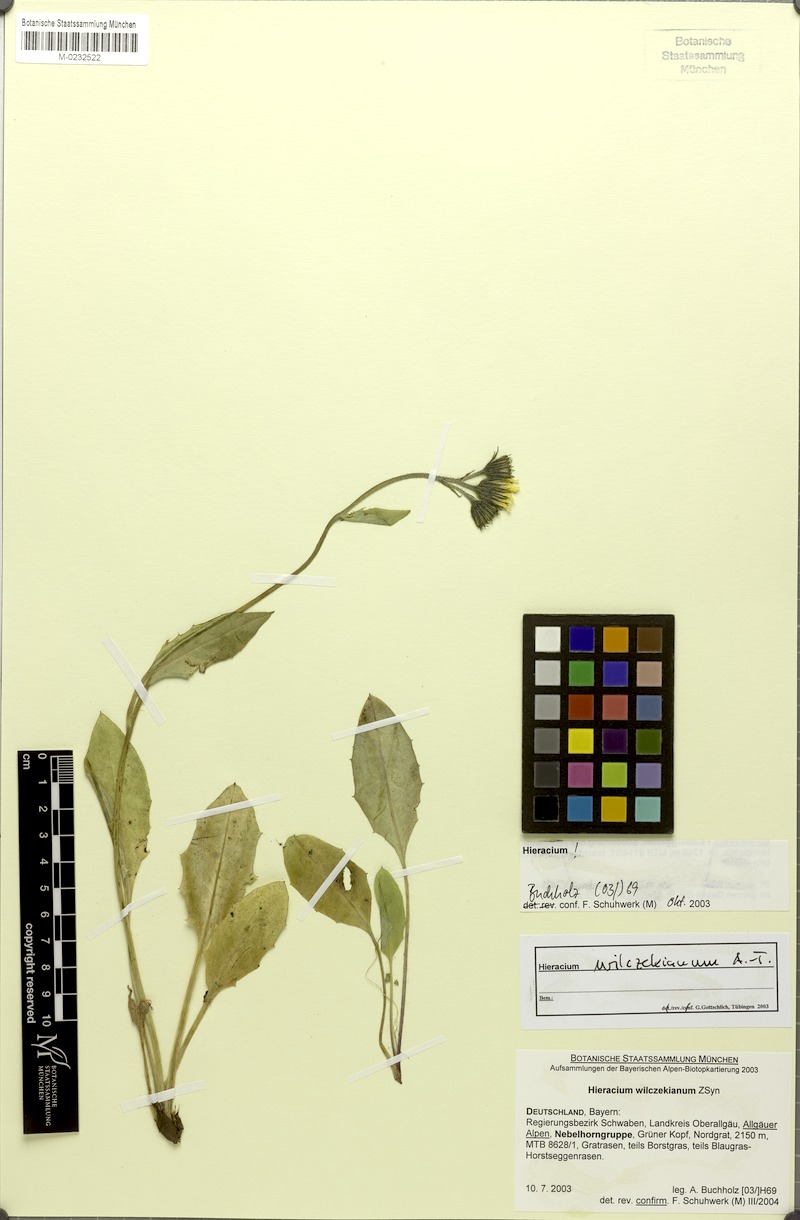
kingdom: Plantae
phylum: Tracheophyta
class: Magnoliopsida
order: Asterales
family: Asteraceae
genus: Hieracium
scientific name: Hieracium wilczekianum
